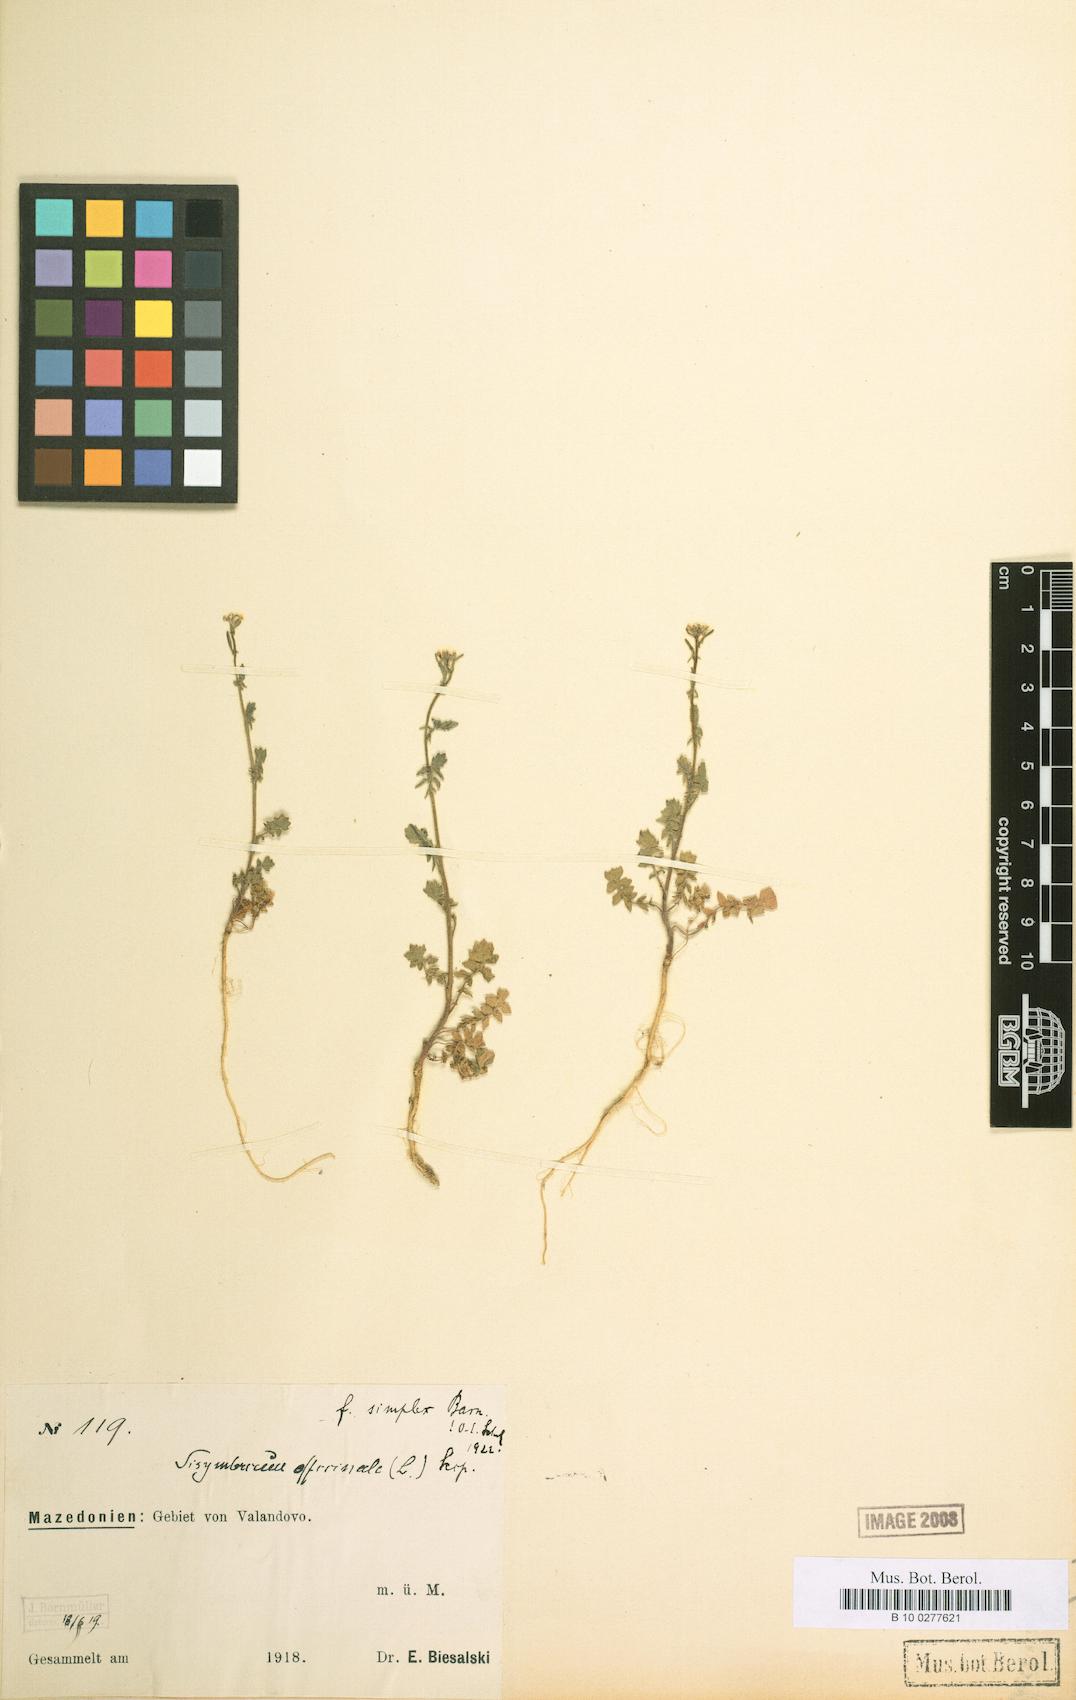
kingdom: Plantae
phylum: Tracheophyta
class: Magnoliopsida
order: Brassicales
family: Brassicaceae
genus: Sisymbrium
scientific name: Sisymbrium officinale
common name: Hedge mustard
